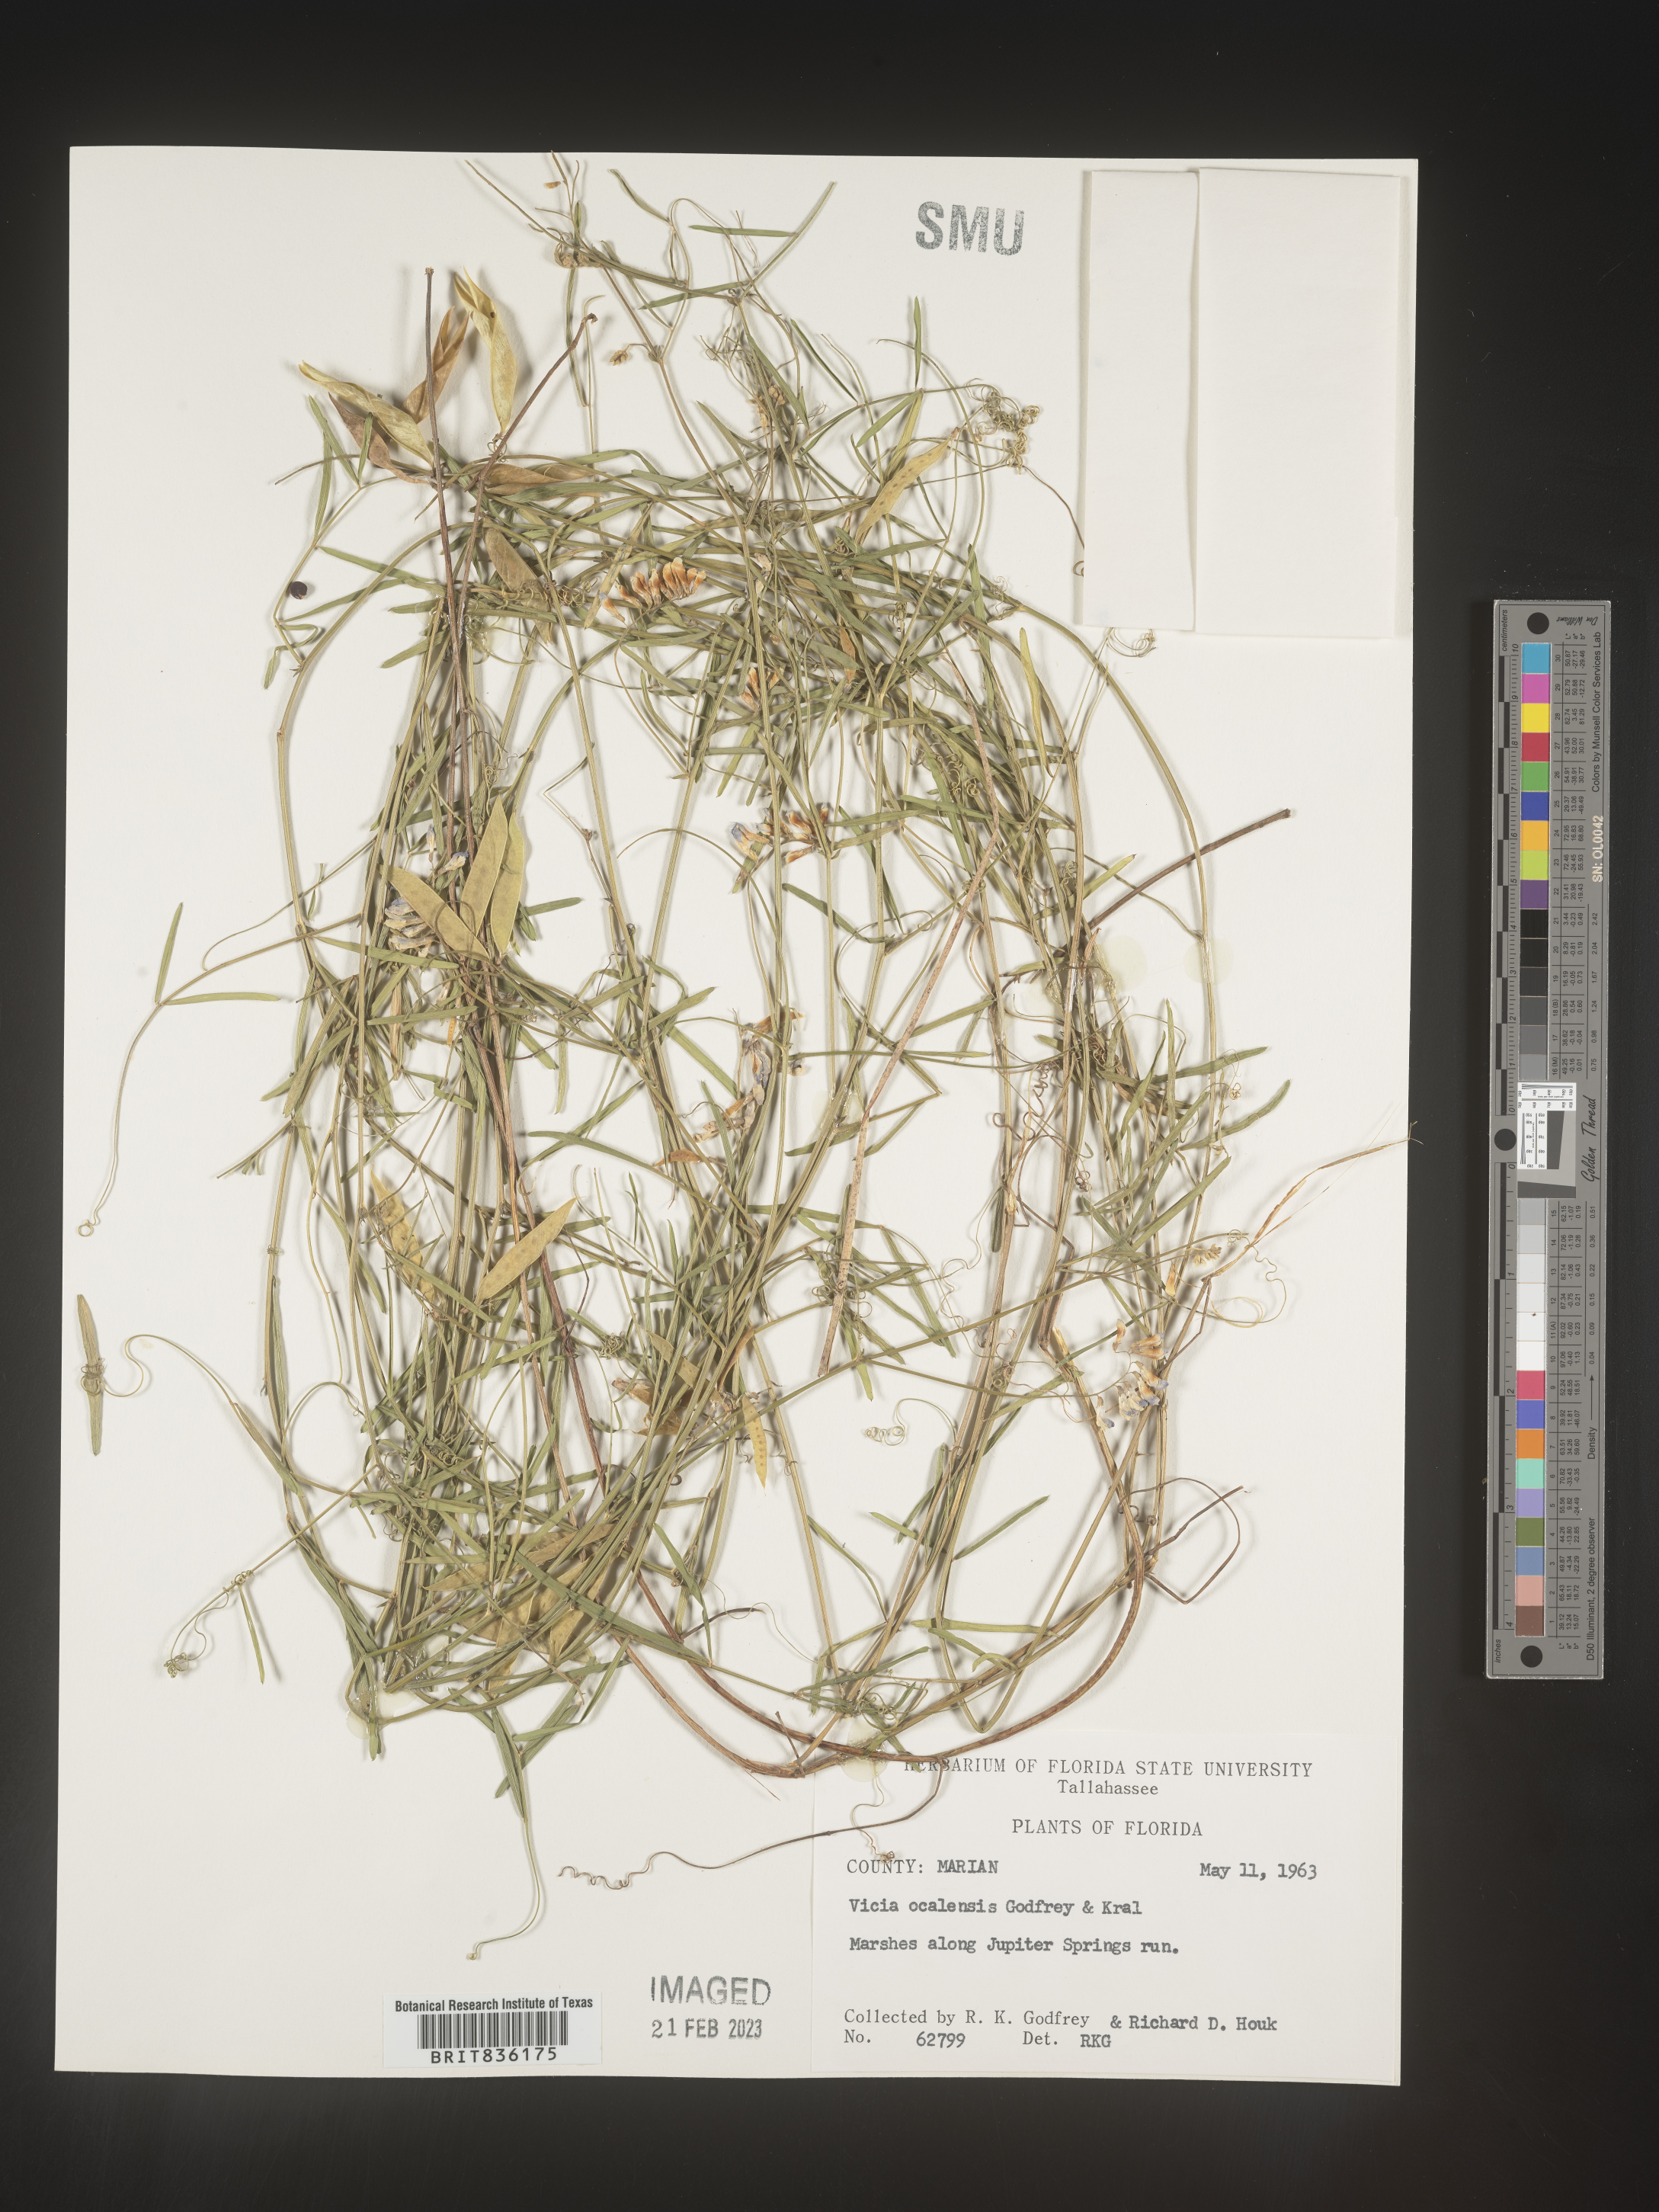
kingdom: Plantae
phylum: Tracheophyta
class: Magnoliopsida
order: Fabales
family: Fabaceae
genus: Vicia
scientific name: Vicia
